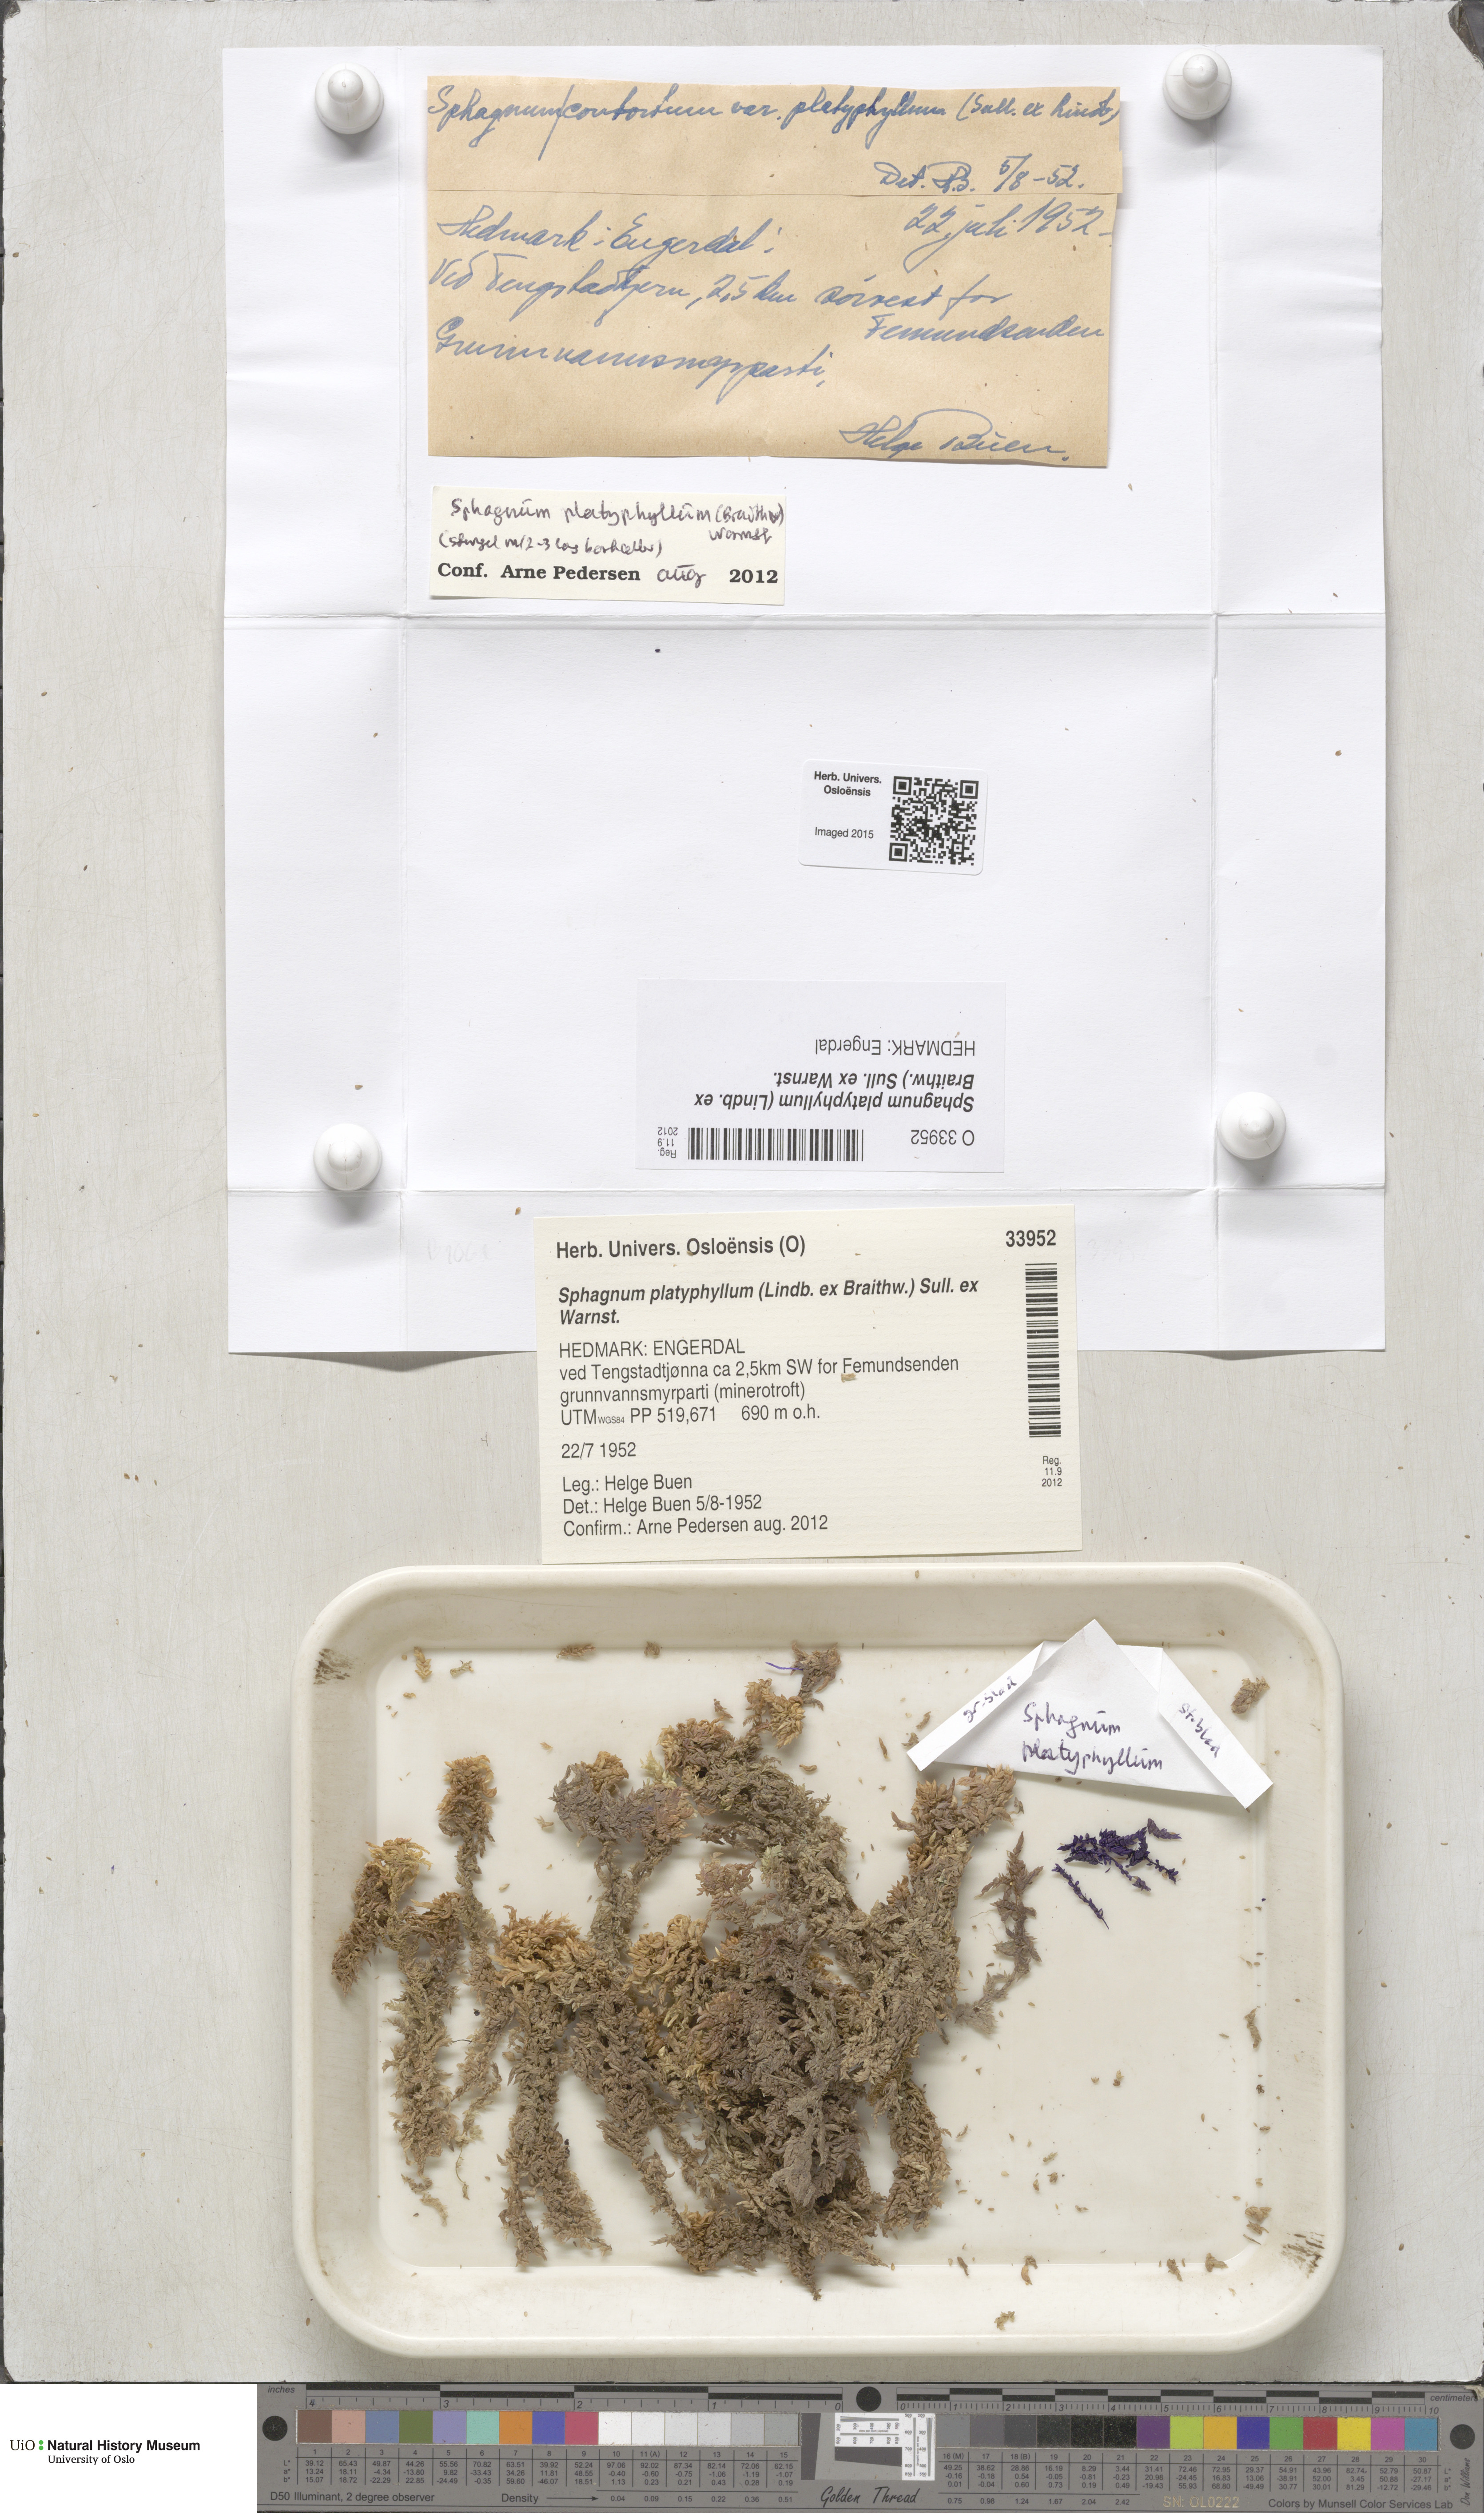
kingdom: Plantae
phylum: Bryophyta
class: Sphagnopsida
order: Sphagnales
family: Sphagnaceae
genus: Sphagnum
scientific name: Sphagnum platyphyllum
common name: Flat-leaved peat moss
